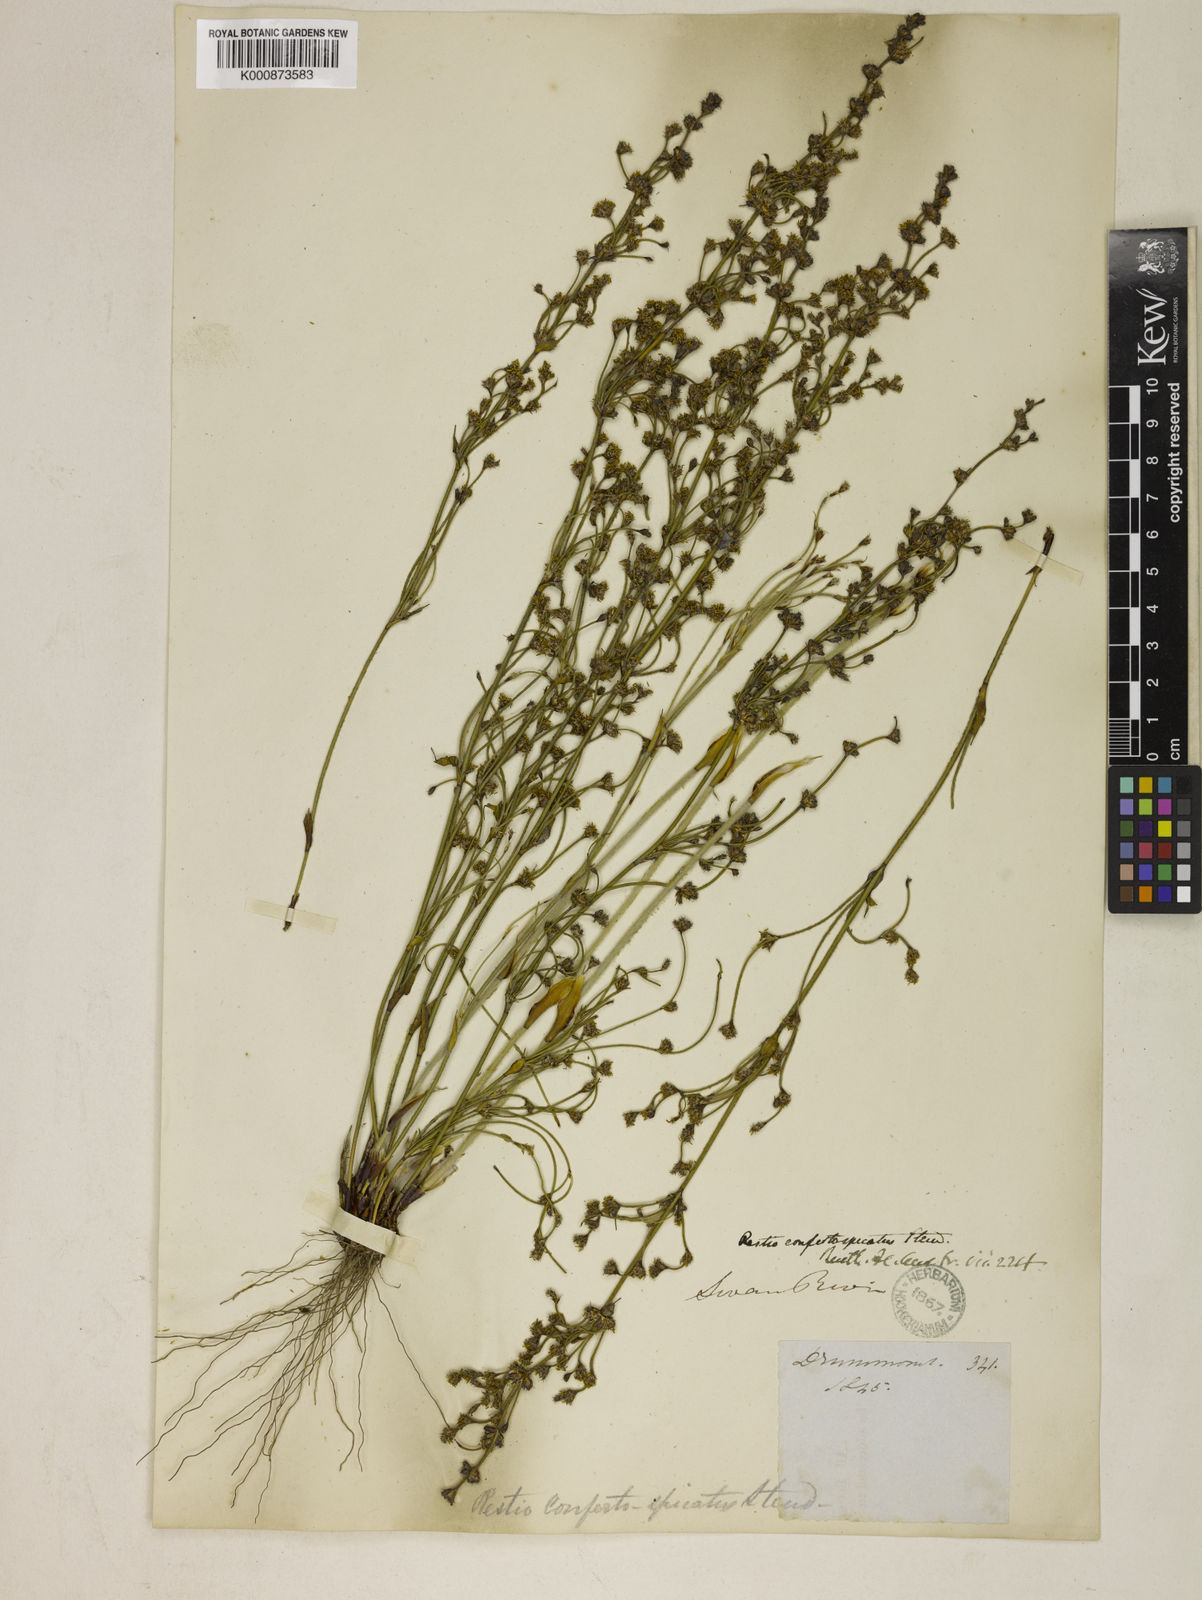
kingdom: Plantae
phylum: Tracheophyta
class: Liliopsida
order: Poales
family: Restionaceae
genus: Desmocladus
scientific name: Desmocladus confertospicatus
